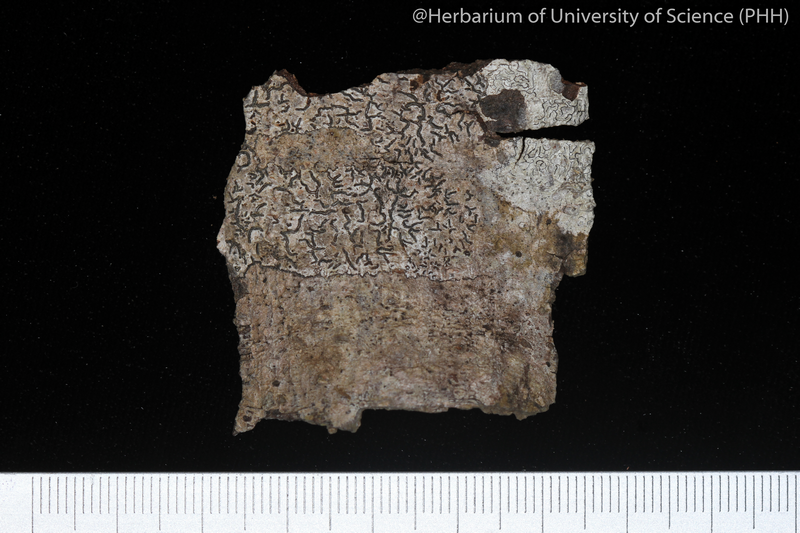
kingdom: Fungi
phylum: Ascomycota
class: Lecanoromycetes
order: Ostropales
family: Graphidaceae
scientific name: Graphidaceae
